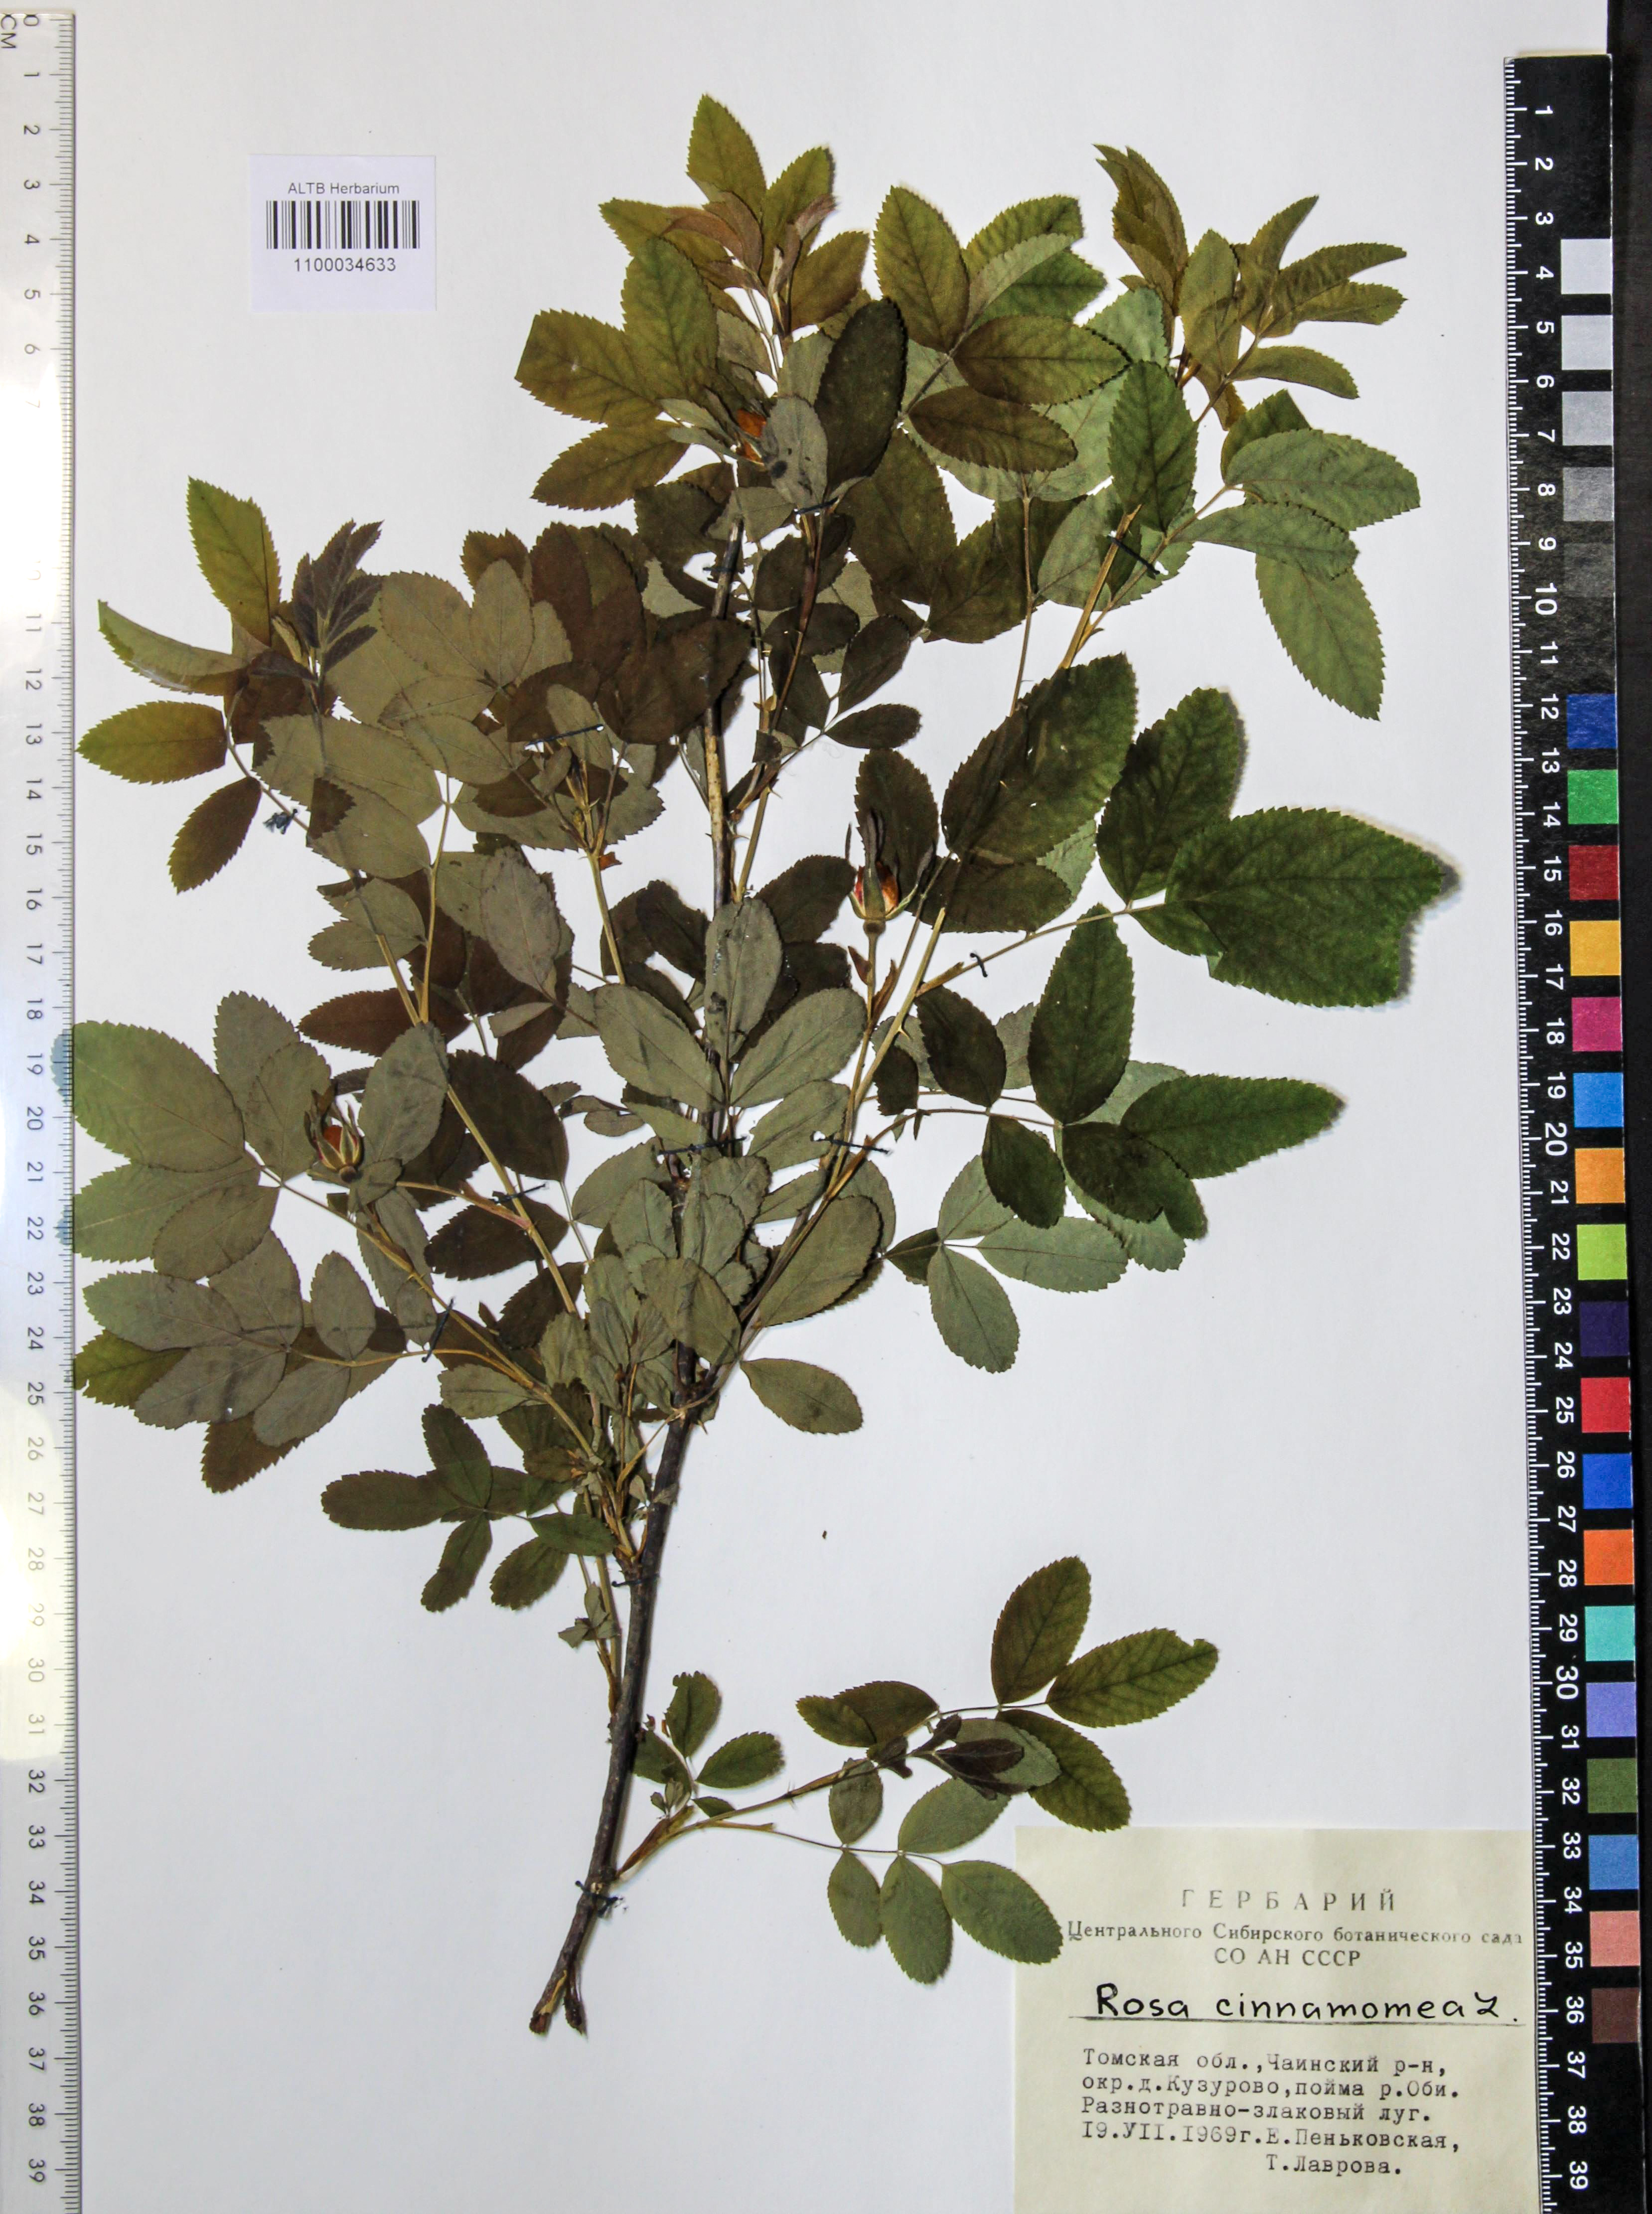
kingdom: Plantae
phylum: Tracheophyta
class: Magnoliopsida
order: Rosales
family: Rosaceae
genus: Rosa
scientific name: Rosa pendulina
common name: Alpine rose
